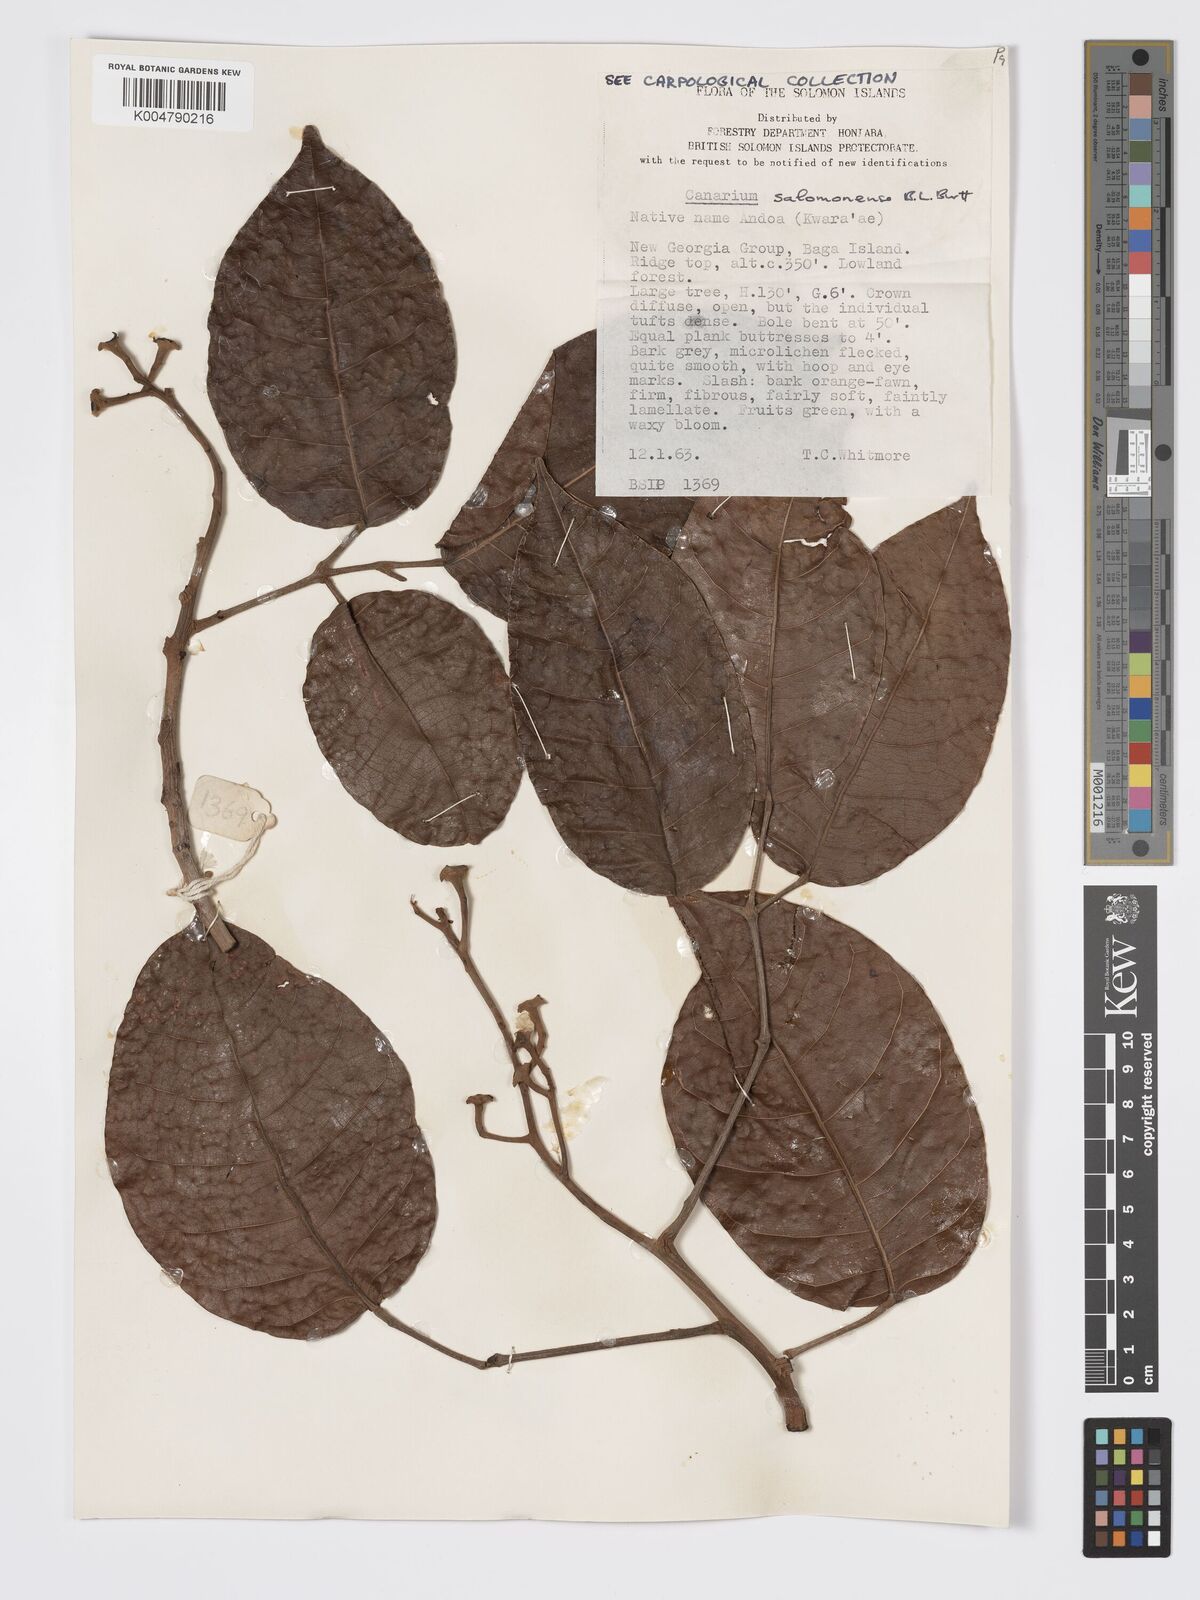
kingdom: Plantae
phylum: Tracheophyta
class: Magnoliopsida
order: Sapindales
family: Burseraceae
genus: Canarium
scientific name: Canarium salomonense
